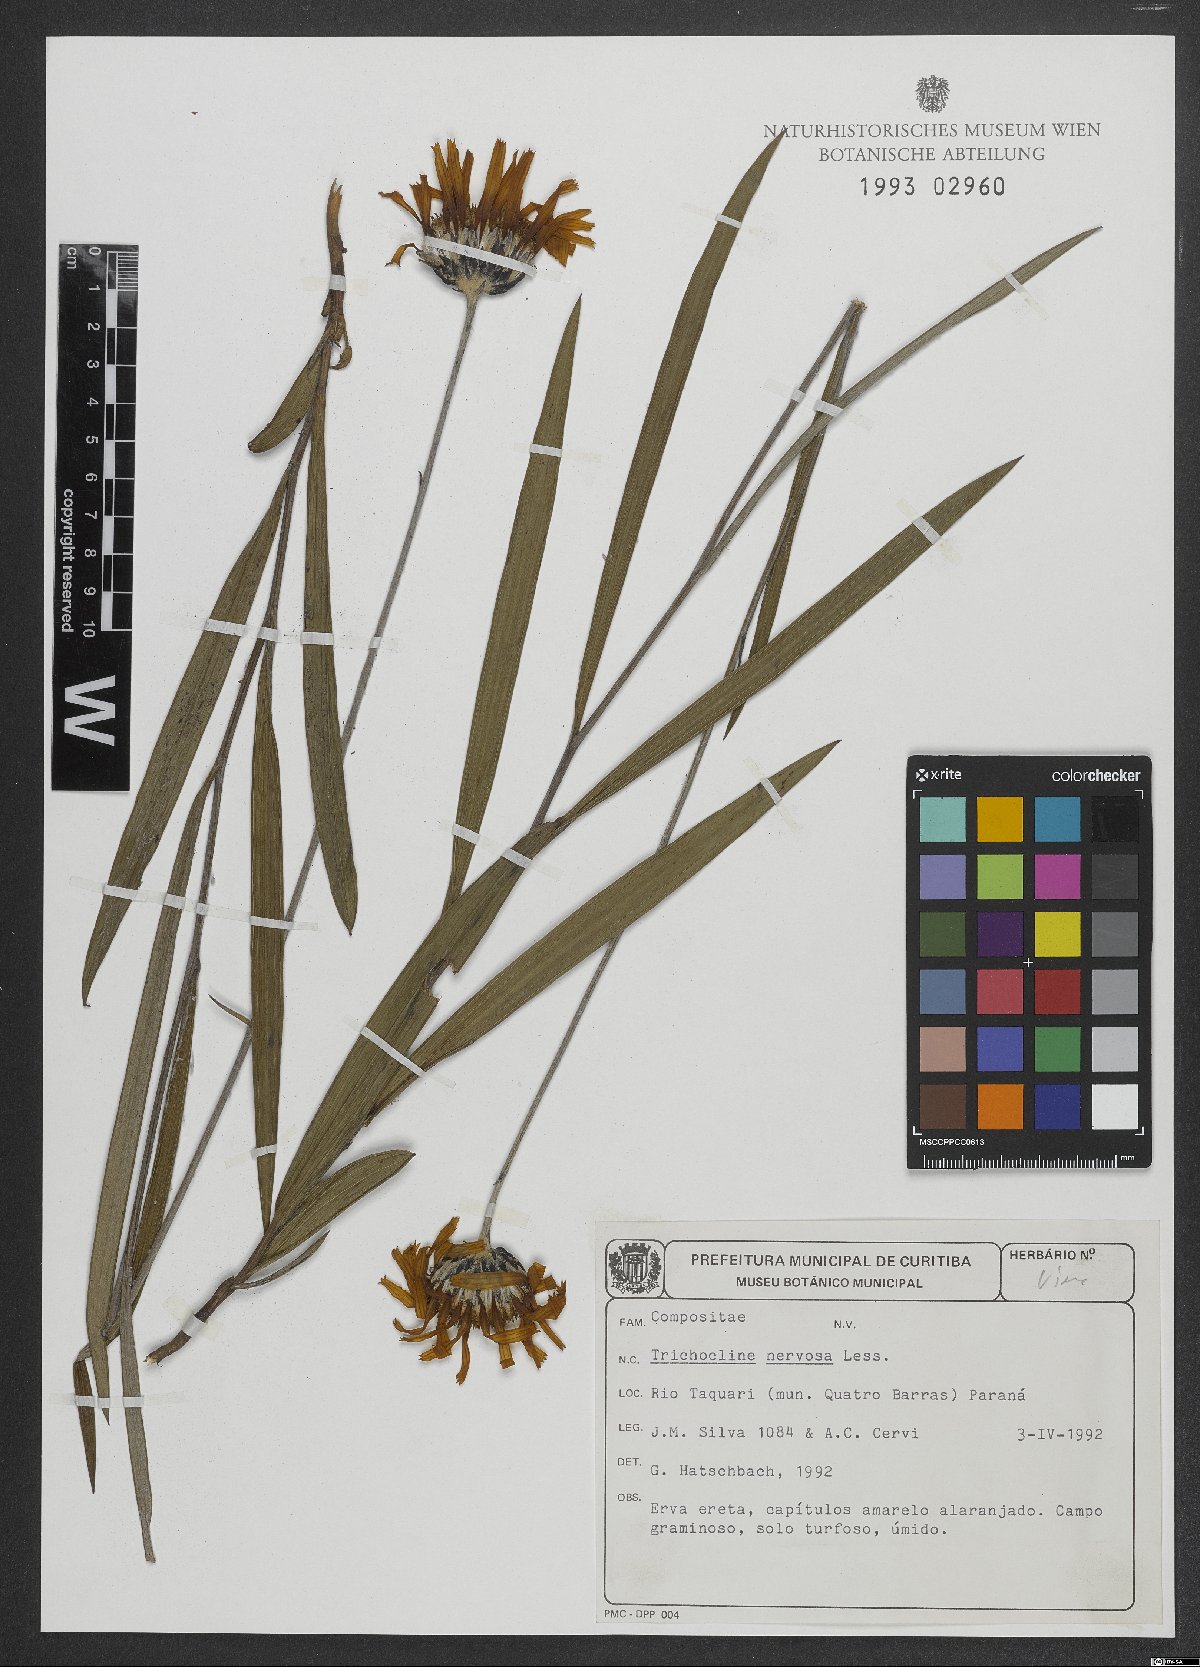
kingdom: Plantae
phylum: Tracheophyta
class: Magnoliopsida
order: Asterales
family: Asteraceae
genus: Lulia
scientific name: Lulia nervosa
